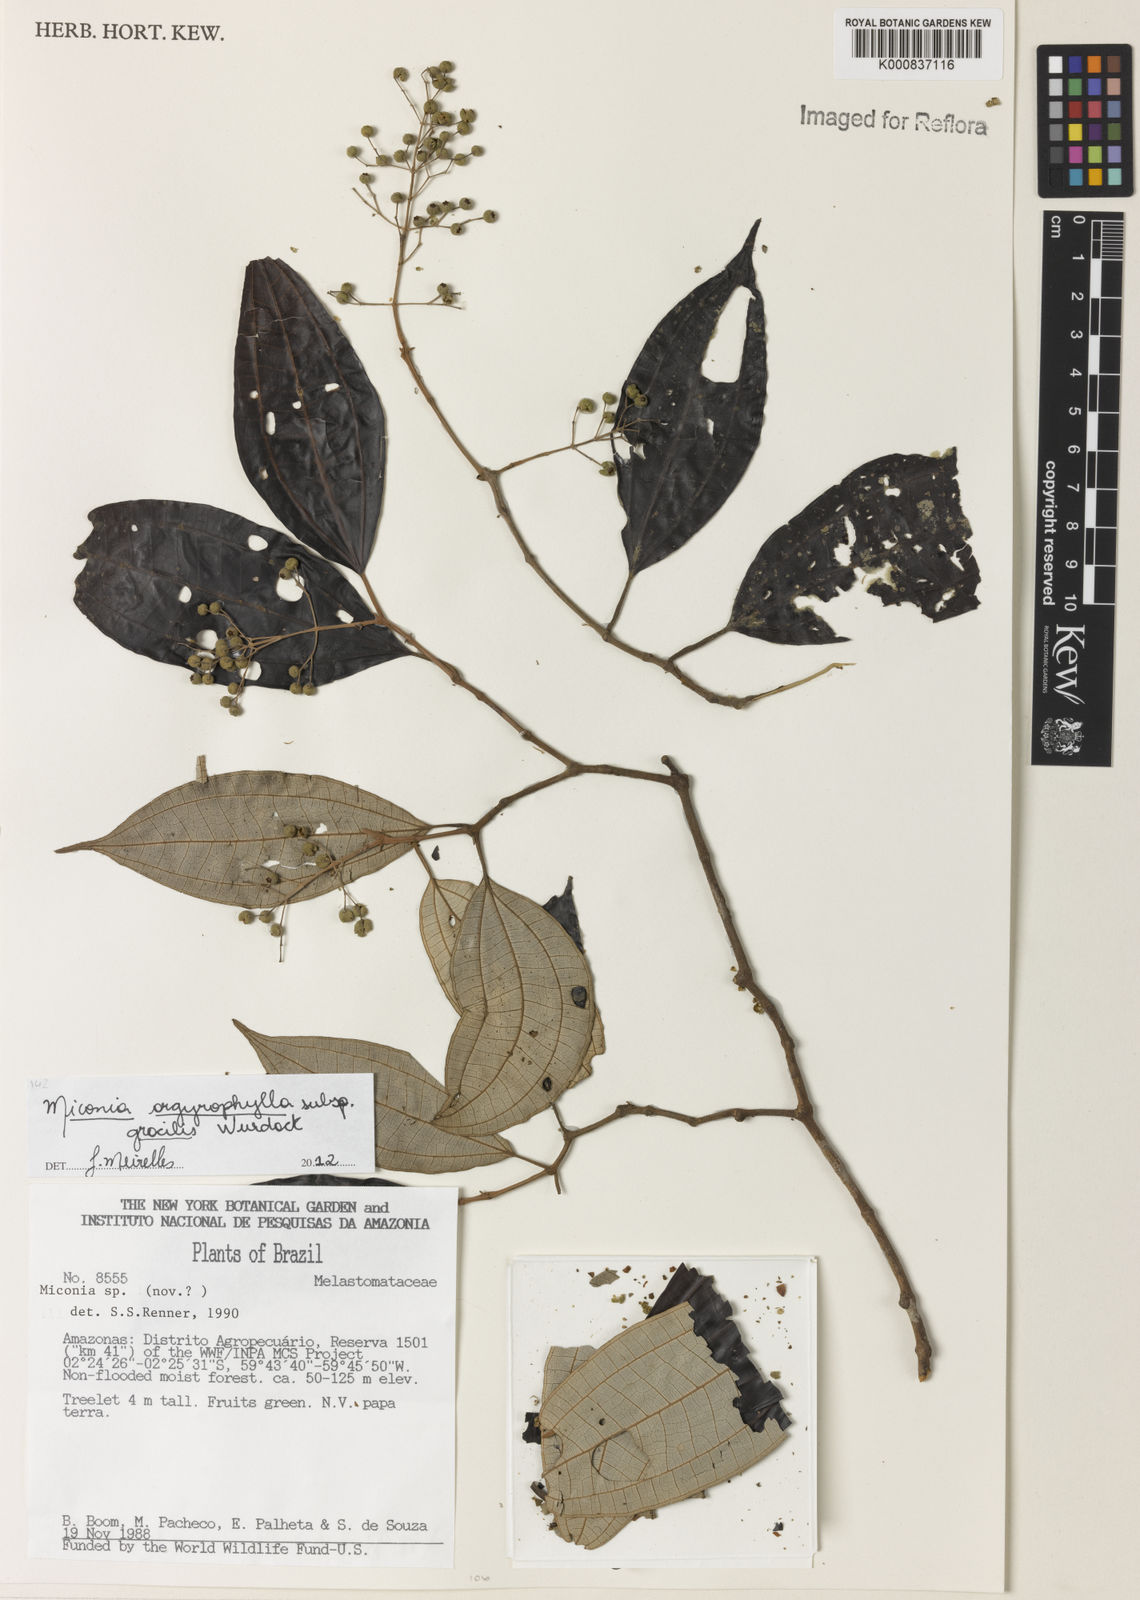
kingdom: Plantae
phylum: Tracheophyta
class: Magnoliopsida
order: Myrtales
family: Melastomataceae
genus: Miconia
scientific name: Miconia argyrophylla
